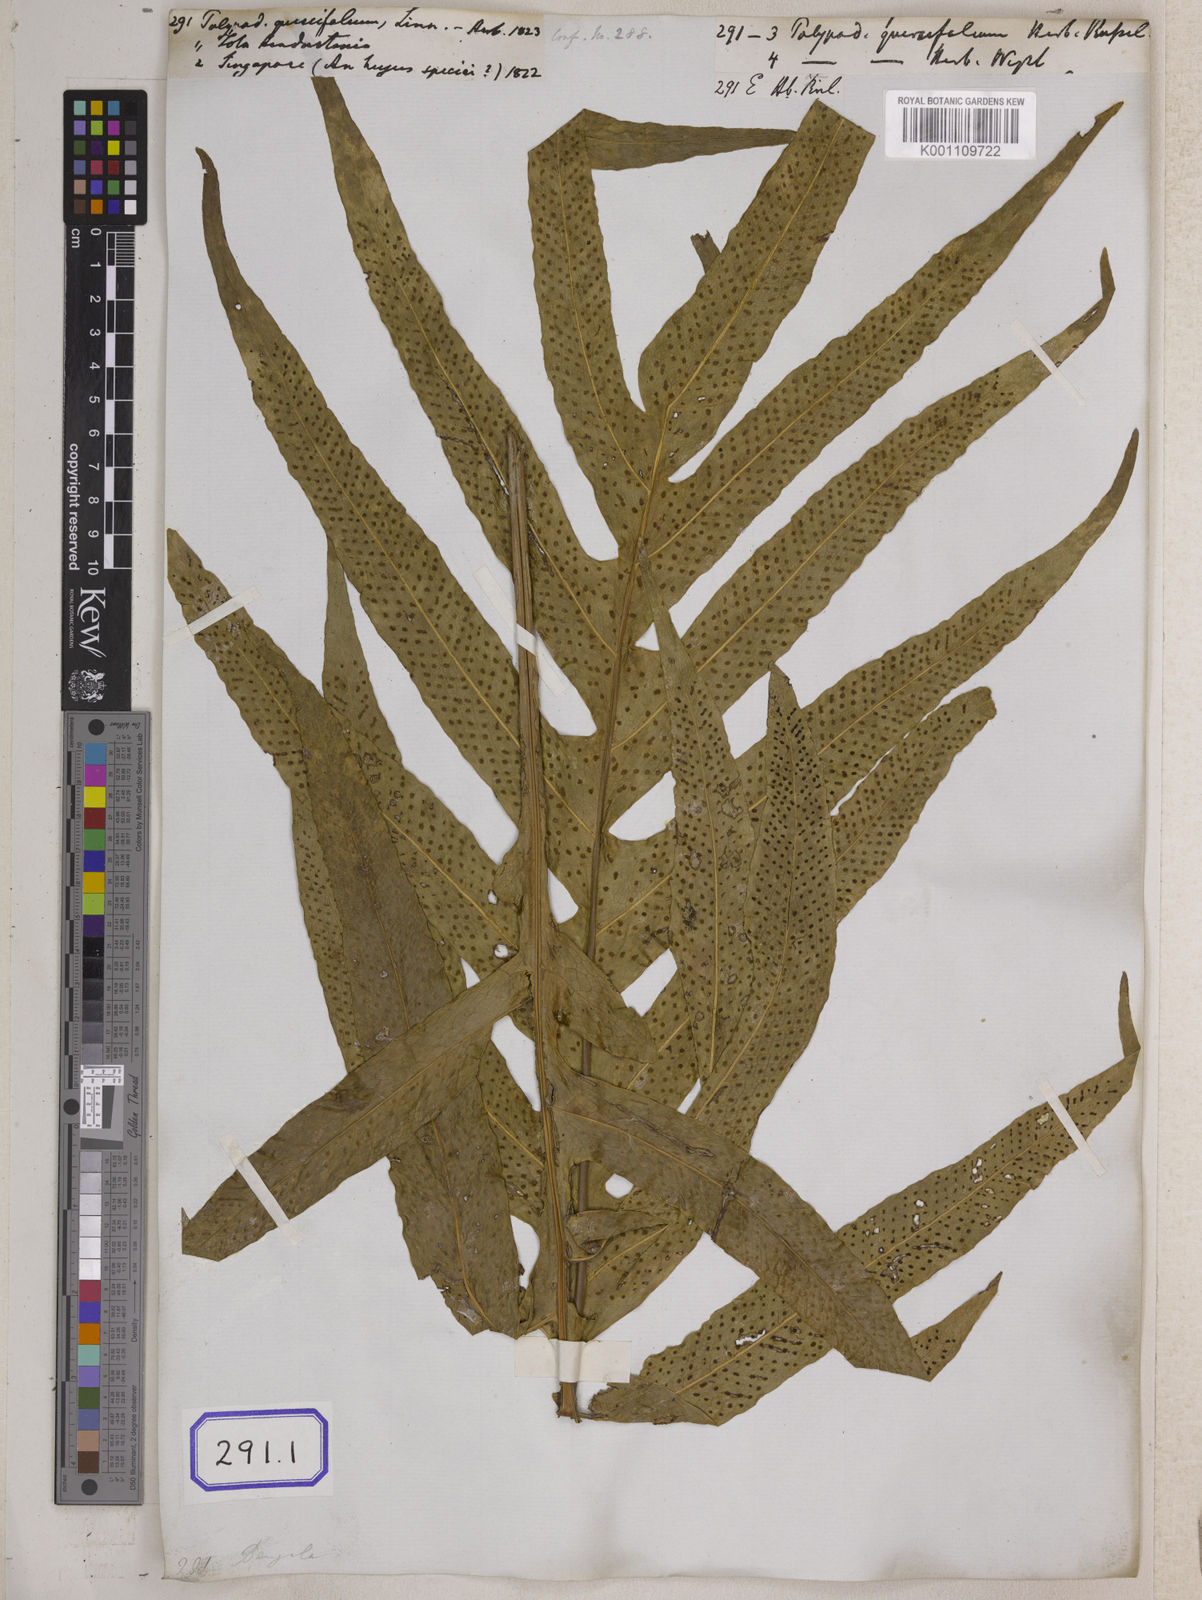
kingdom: Plantae
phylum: Tracheophyta
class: Polypodiopsida
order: Polypodiales
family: Polypodiaceae
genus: Drynaria
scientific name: Drynaria quercifolia
